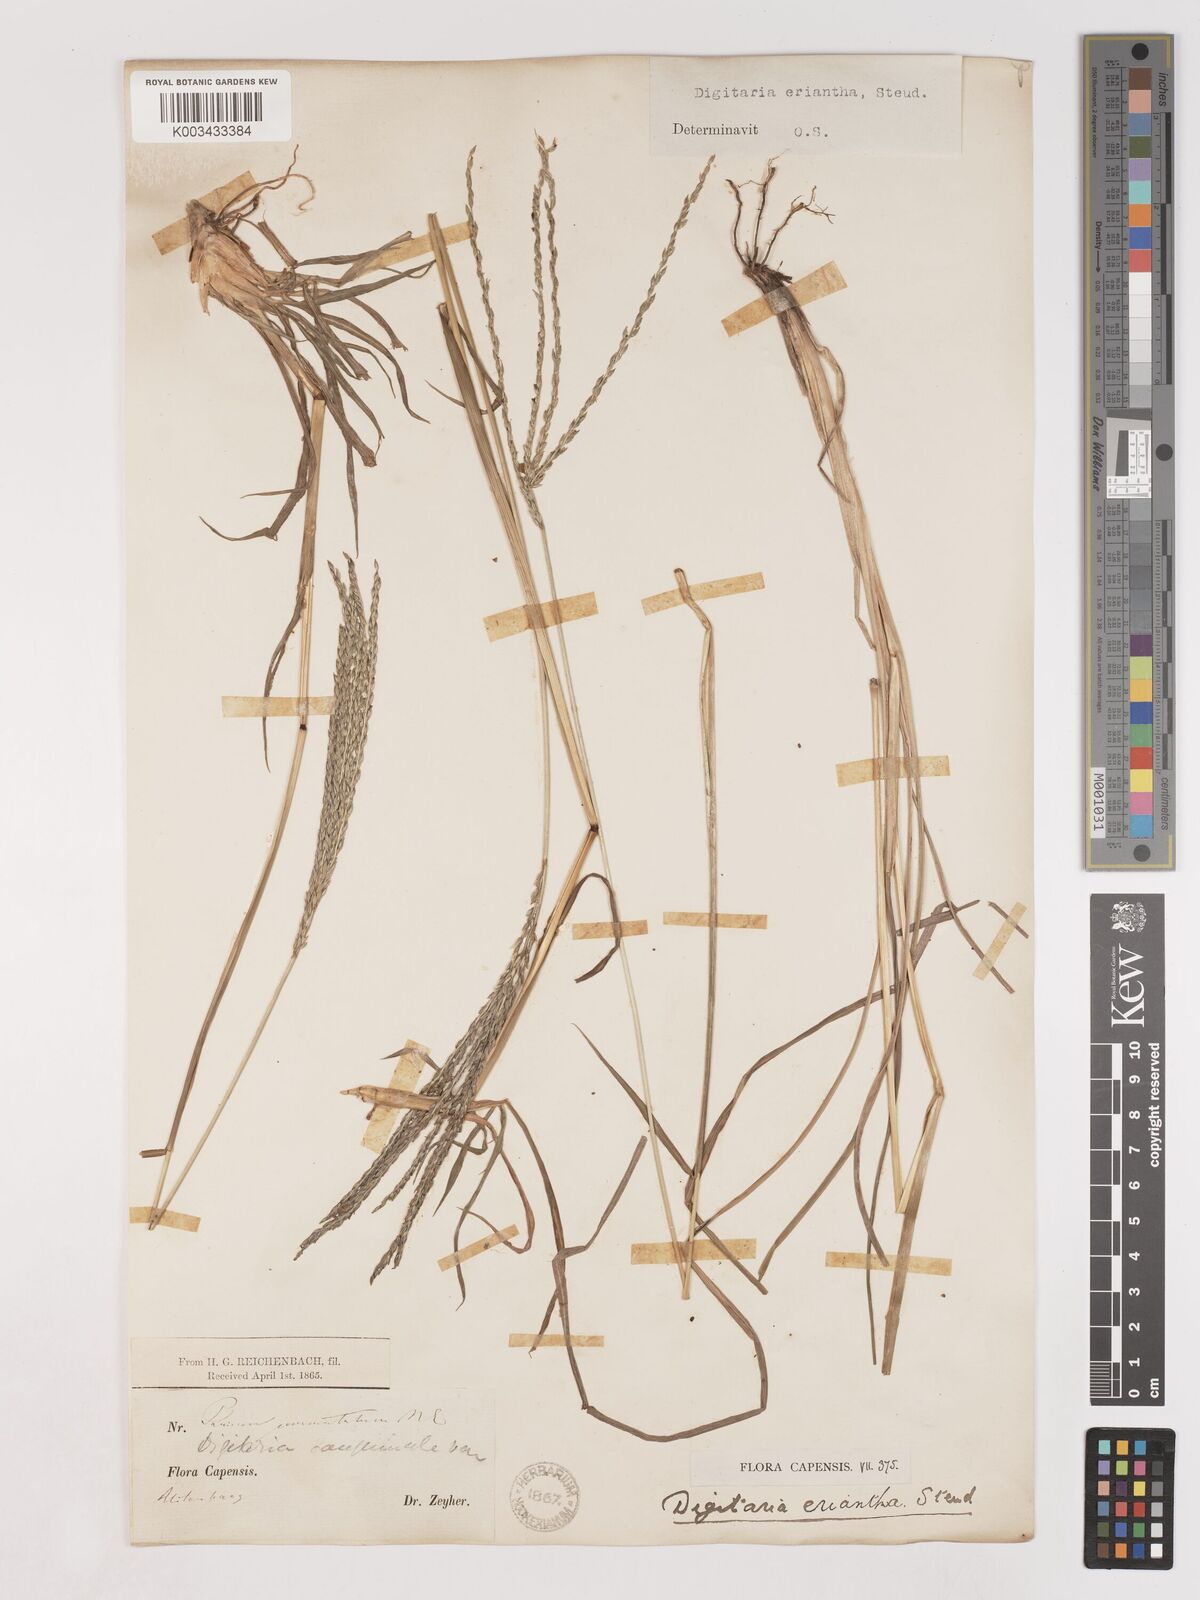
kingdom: Plantae
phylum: Tracheophyta
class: Liliopsida
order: Poales
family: Poaceae
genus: Digitaria
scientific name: Digitaria eriantha
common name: Digitgrass
